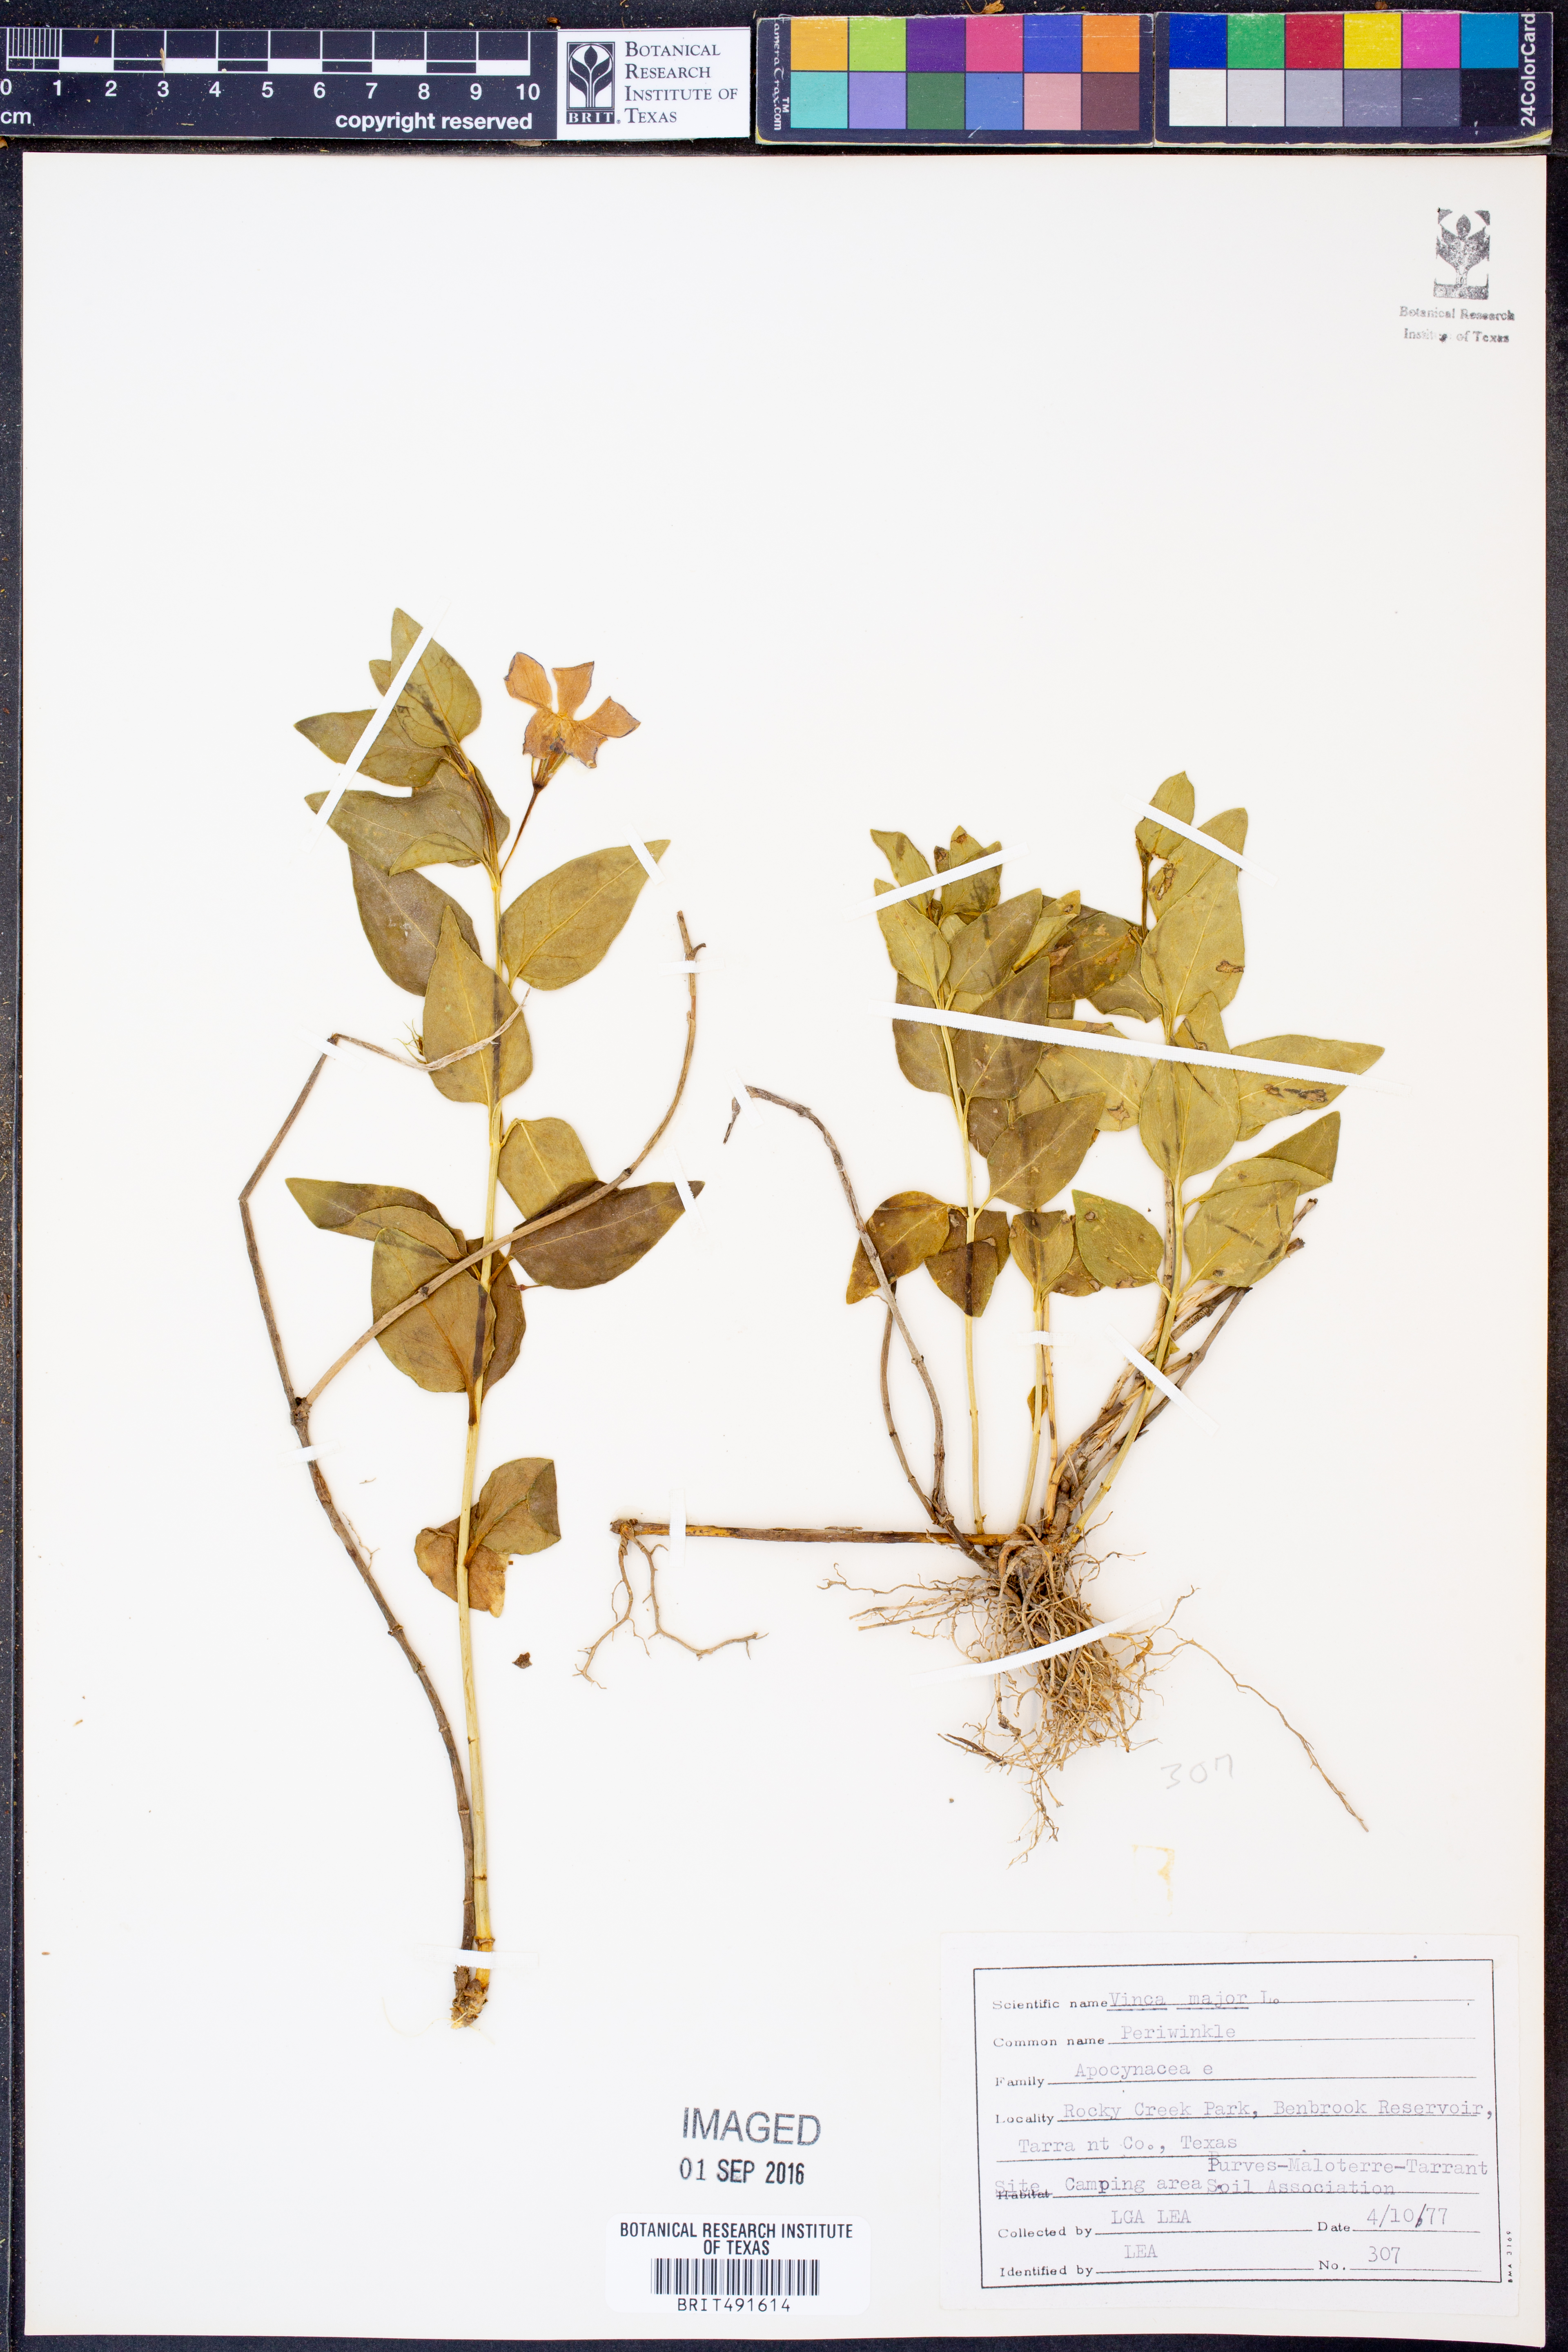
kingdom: Plantae
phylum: Tracheophyta
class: Magnoliopsida
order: Gentianales
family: Apocynaceae
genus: Vinca
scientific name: Vinca major
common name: Greater periwinkle
